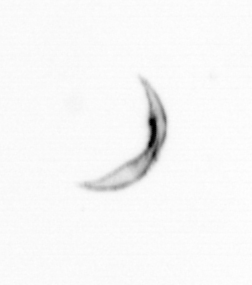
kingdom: Chromista
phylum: Ochrophyta
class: Bacillariophyceae
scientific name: Bacillariophyceae
